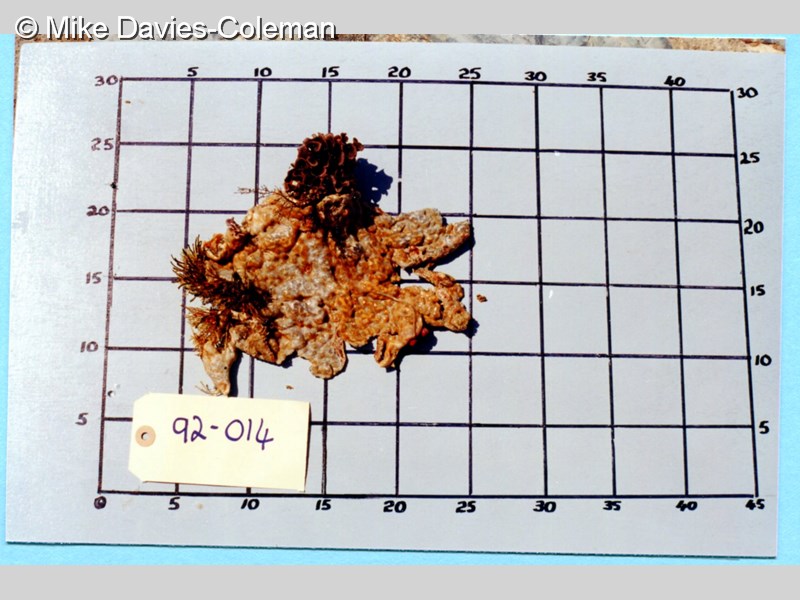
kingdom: Animalia
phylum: Chordata
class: Ascidiacea
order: Aplousobranchia
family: Didemnidae
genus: Polysyncraton
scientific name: Polysyncraton milleporae
